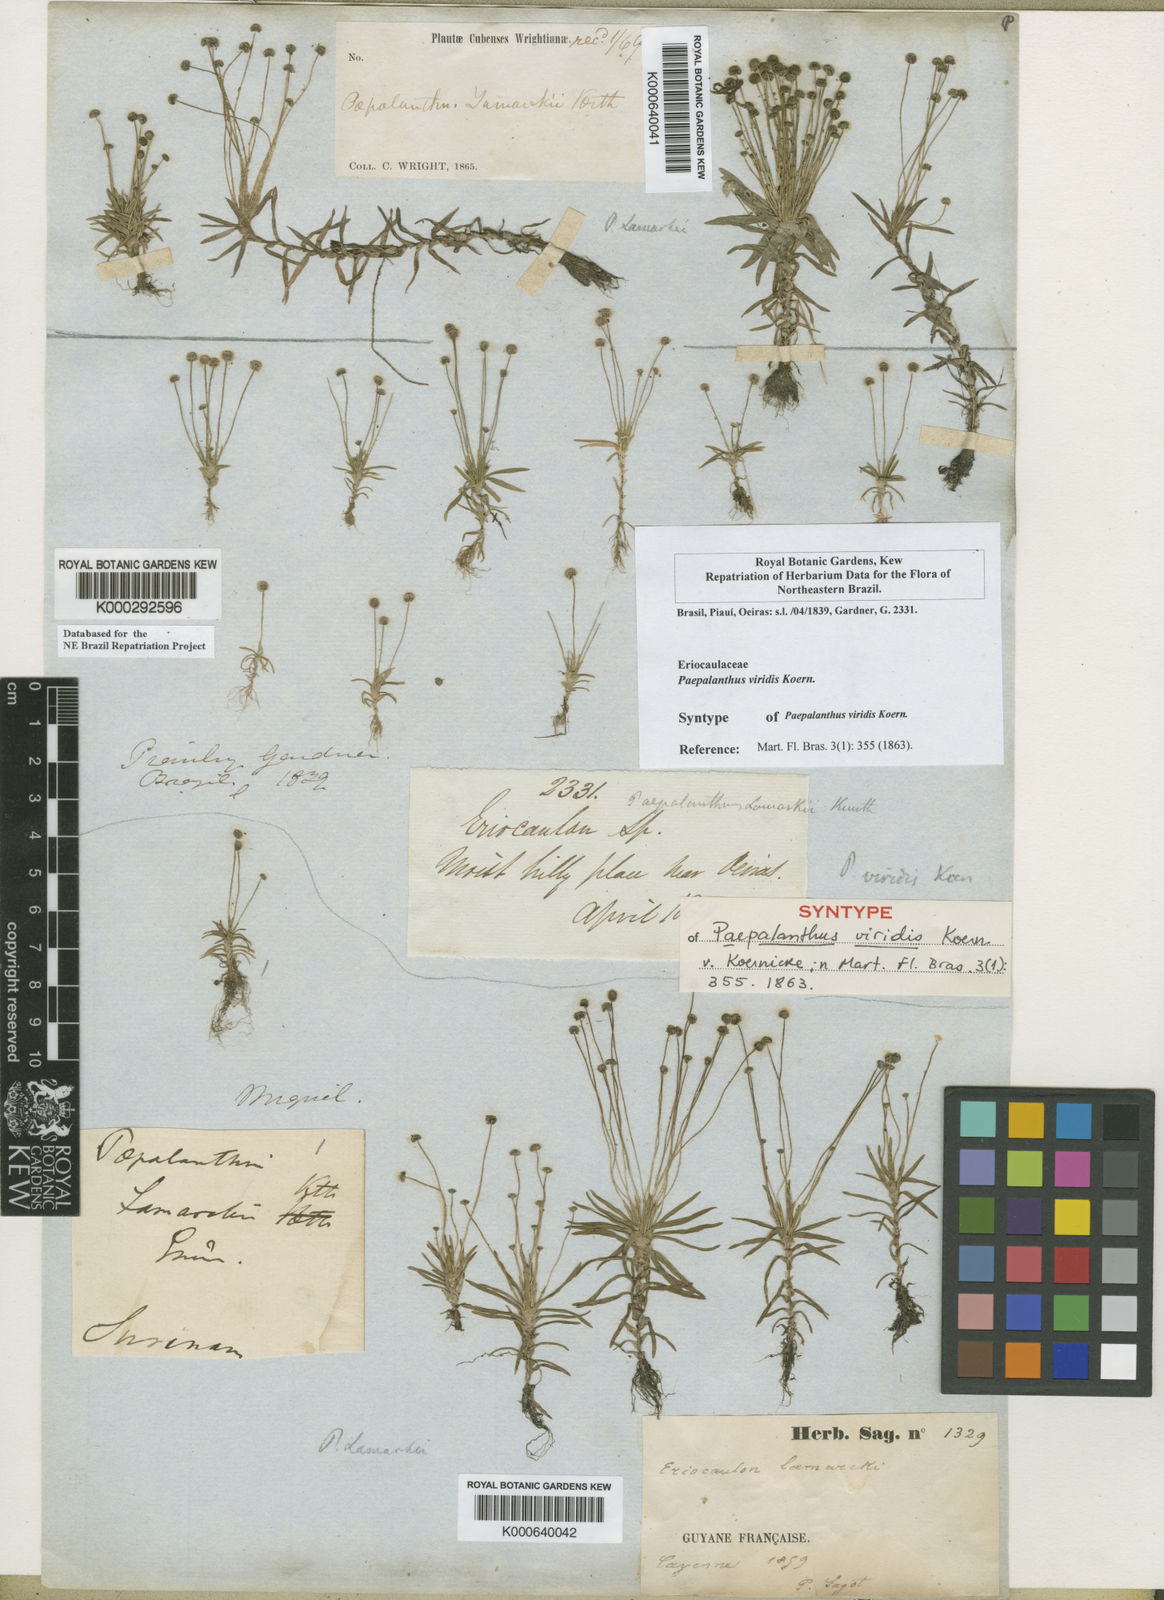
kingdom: Plantae
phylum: Tracheophyta
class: Liliopsida
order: Poales
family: Eriocaulaceae
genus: Paepalanthus
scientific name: Paepalanthus
